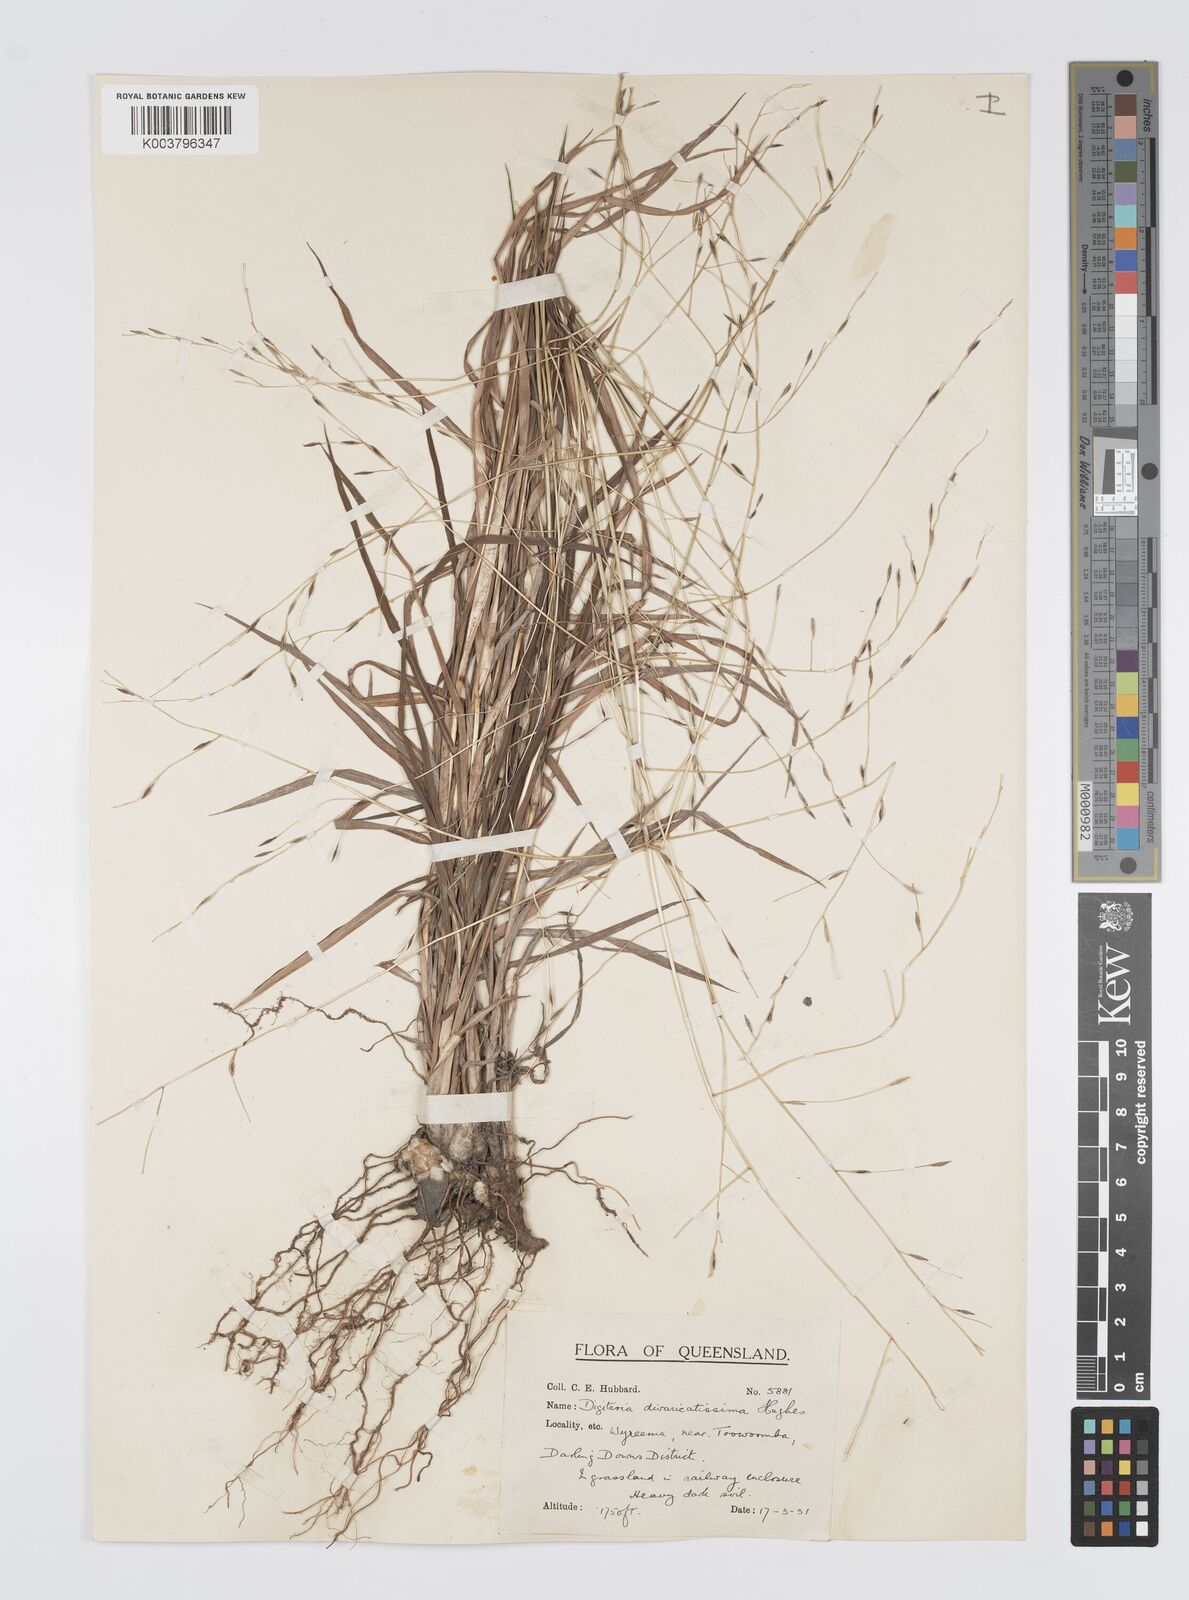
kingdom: Plantae
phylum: Tracheophyta
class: Liliopsida
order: Poales
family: Poaceae
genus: Digitaria
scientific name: Digitaria divaricatissima
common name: Crabgrass
